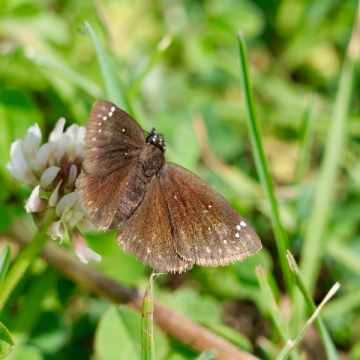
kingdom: Animalia
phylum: Arthropoda
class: Insecta
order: Lepidoptera
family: Hesperiidae
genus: Pholisora
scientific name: Pholisora catullus
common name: Common Sootywing
